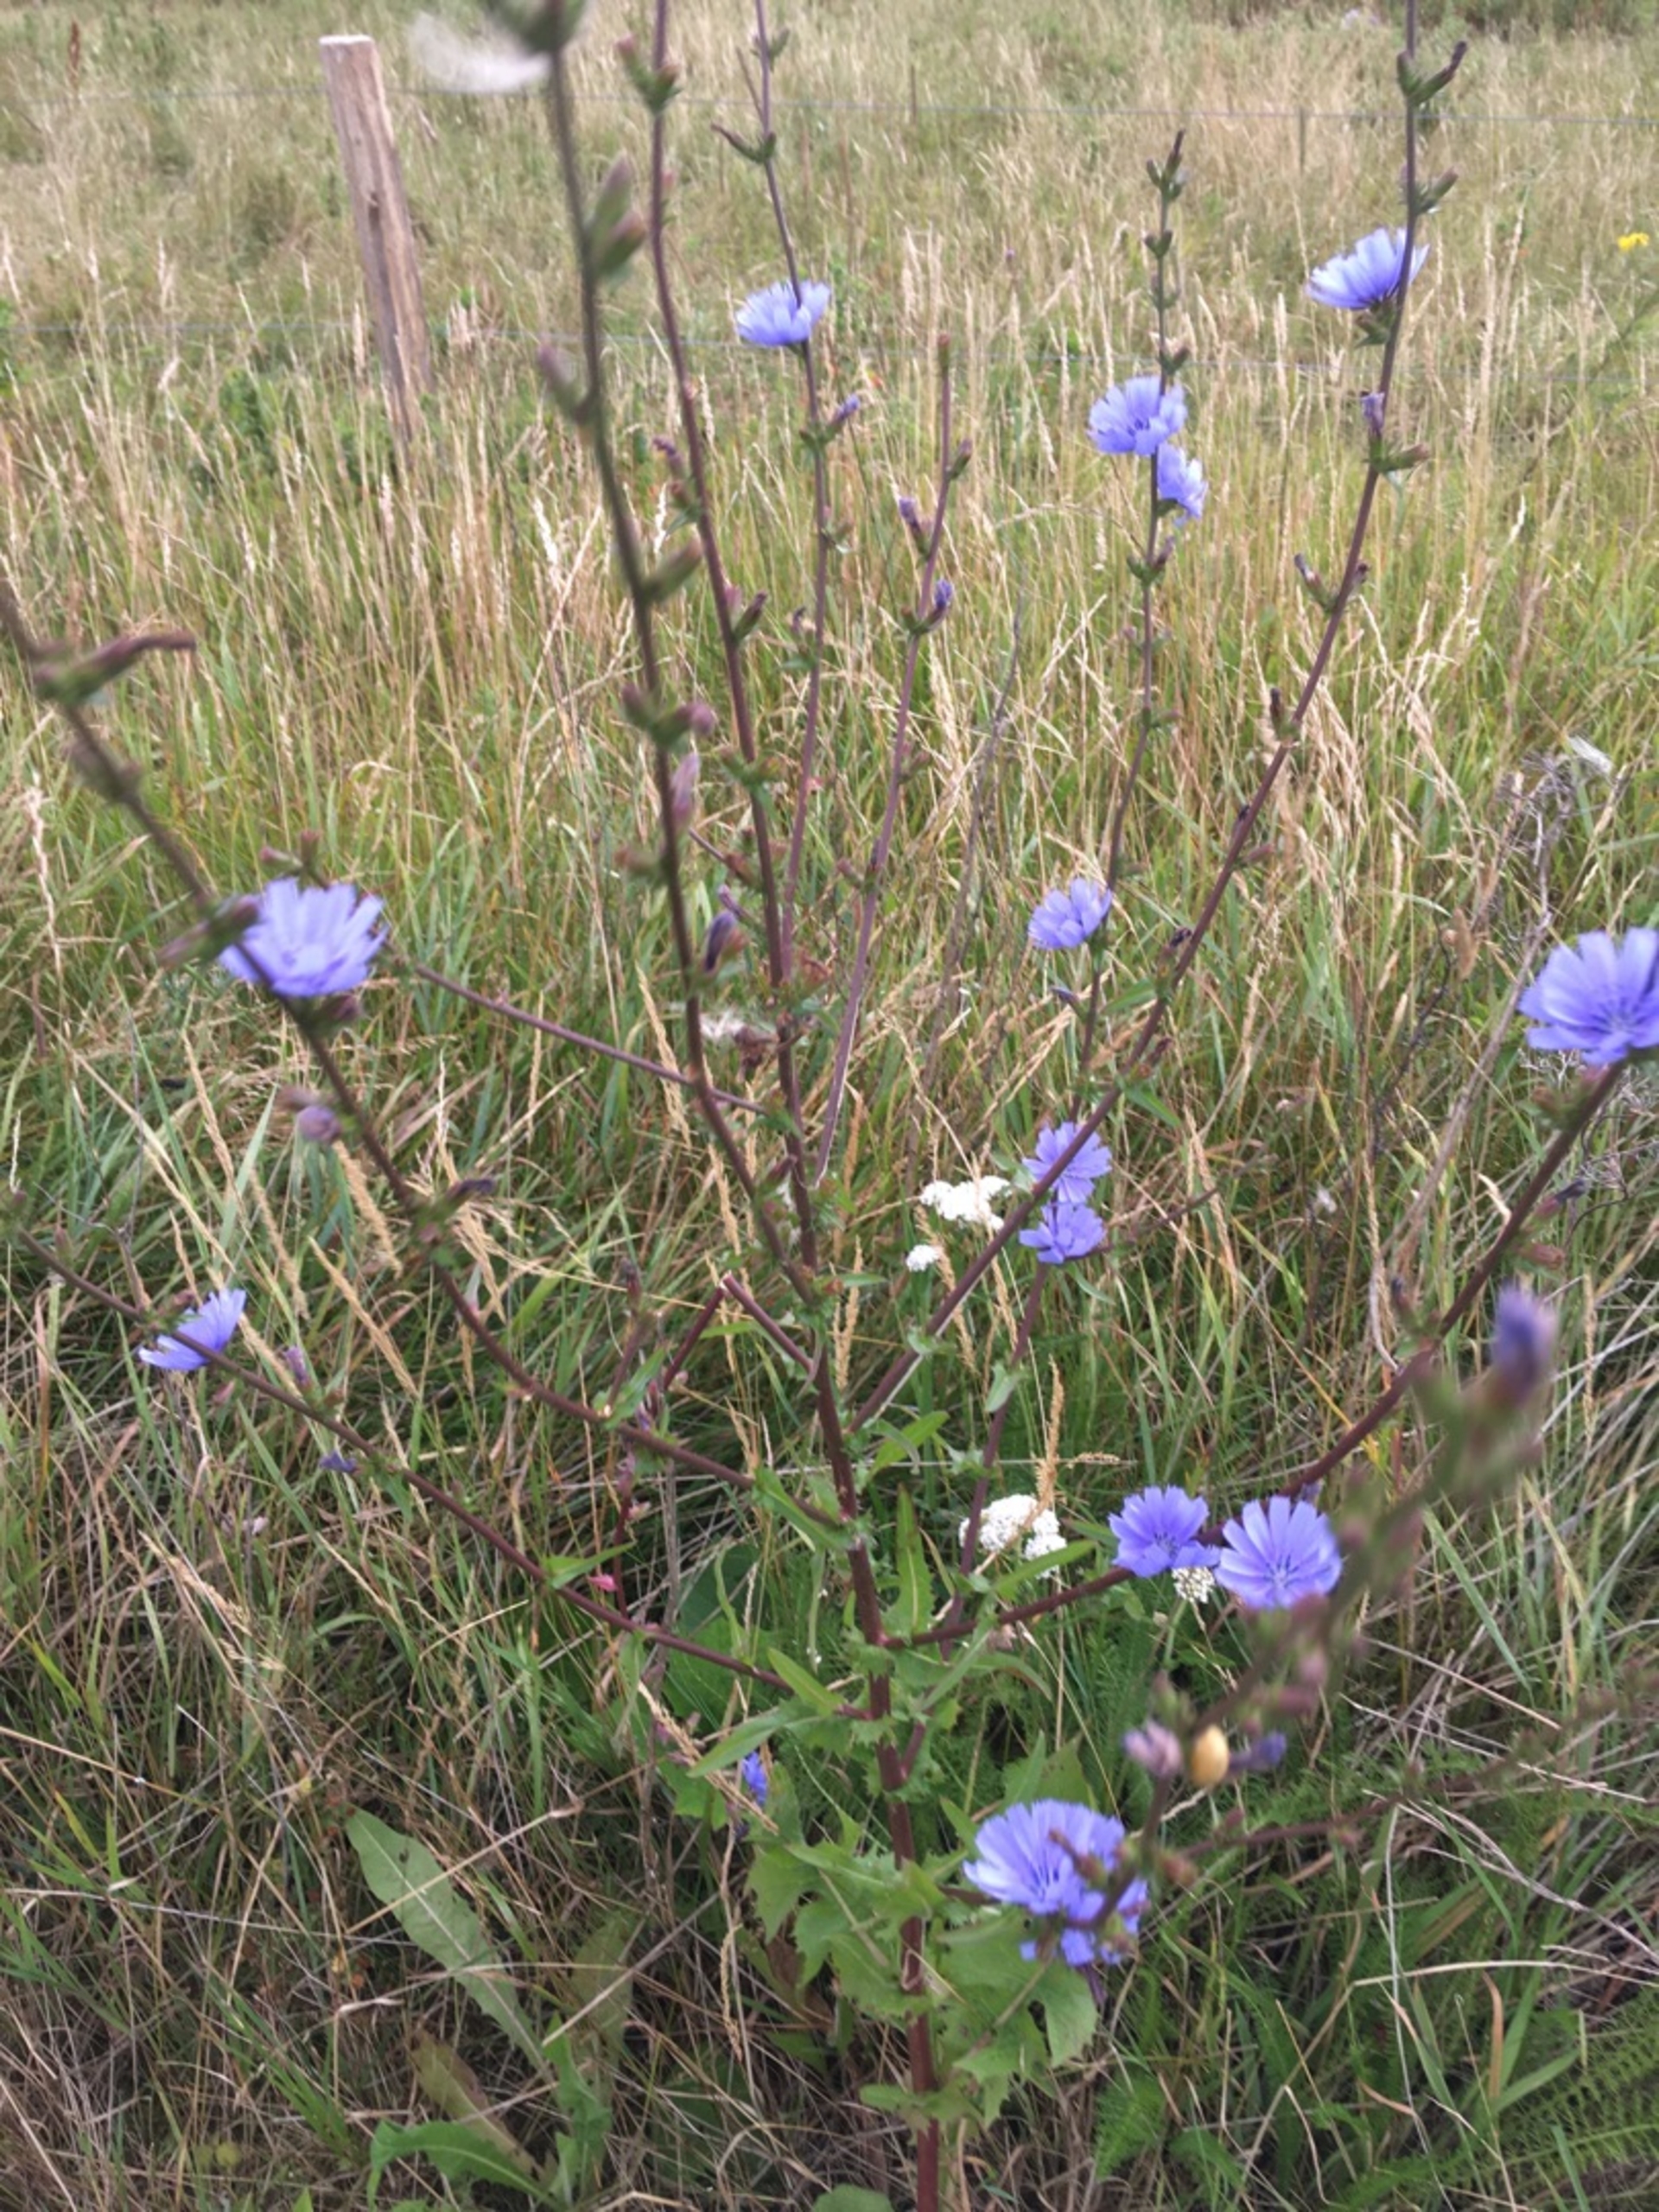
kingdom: Plantae
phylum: Tracheophyta
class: Magnoliopsida
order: Asterales
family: Asteraceae
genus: Cichorium
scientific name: Cichorium intybus
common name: Cikorie
